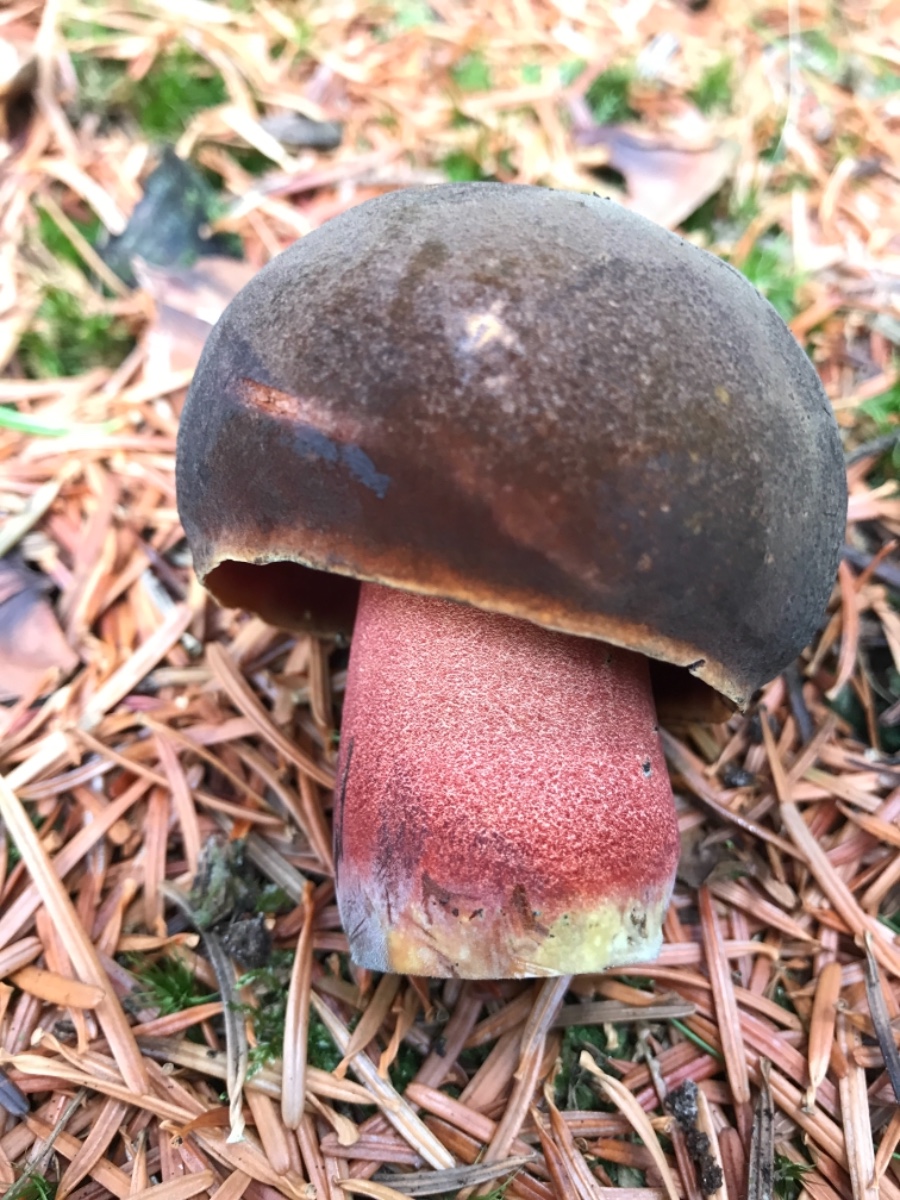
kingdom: Fungi
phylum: Basidiomycota
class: Agaricomycetes
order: Boletales
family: Boletaceae
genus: Neoboletus
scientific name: Neoboletus erythropus
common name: punktstokket indigorørhat
